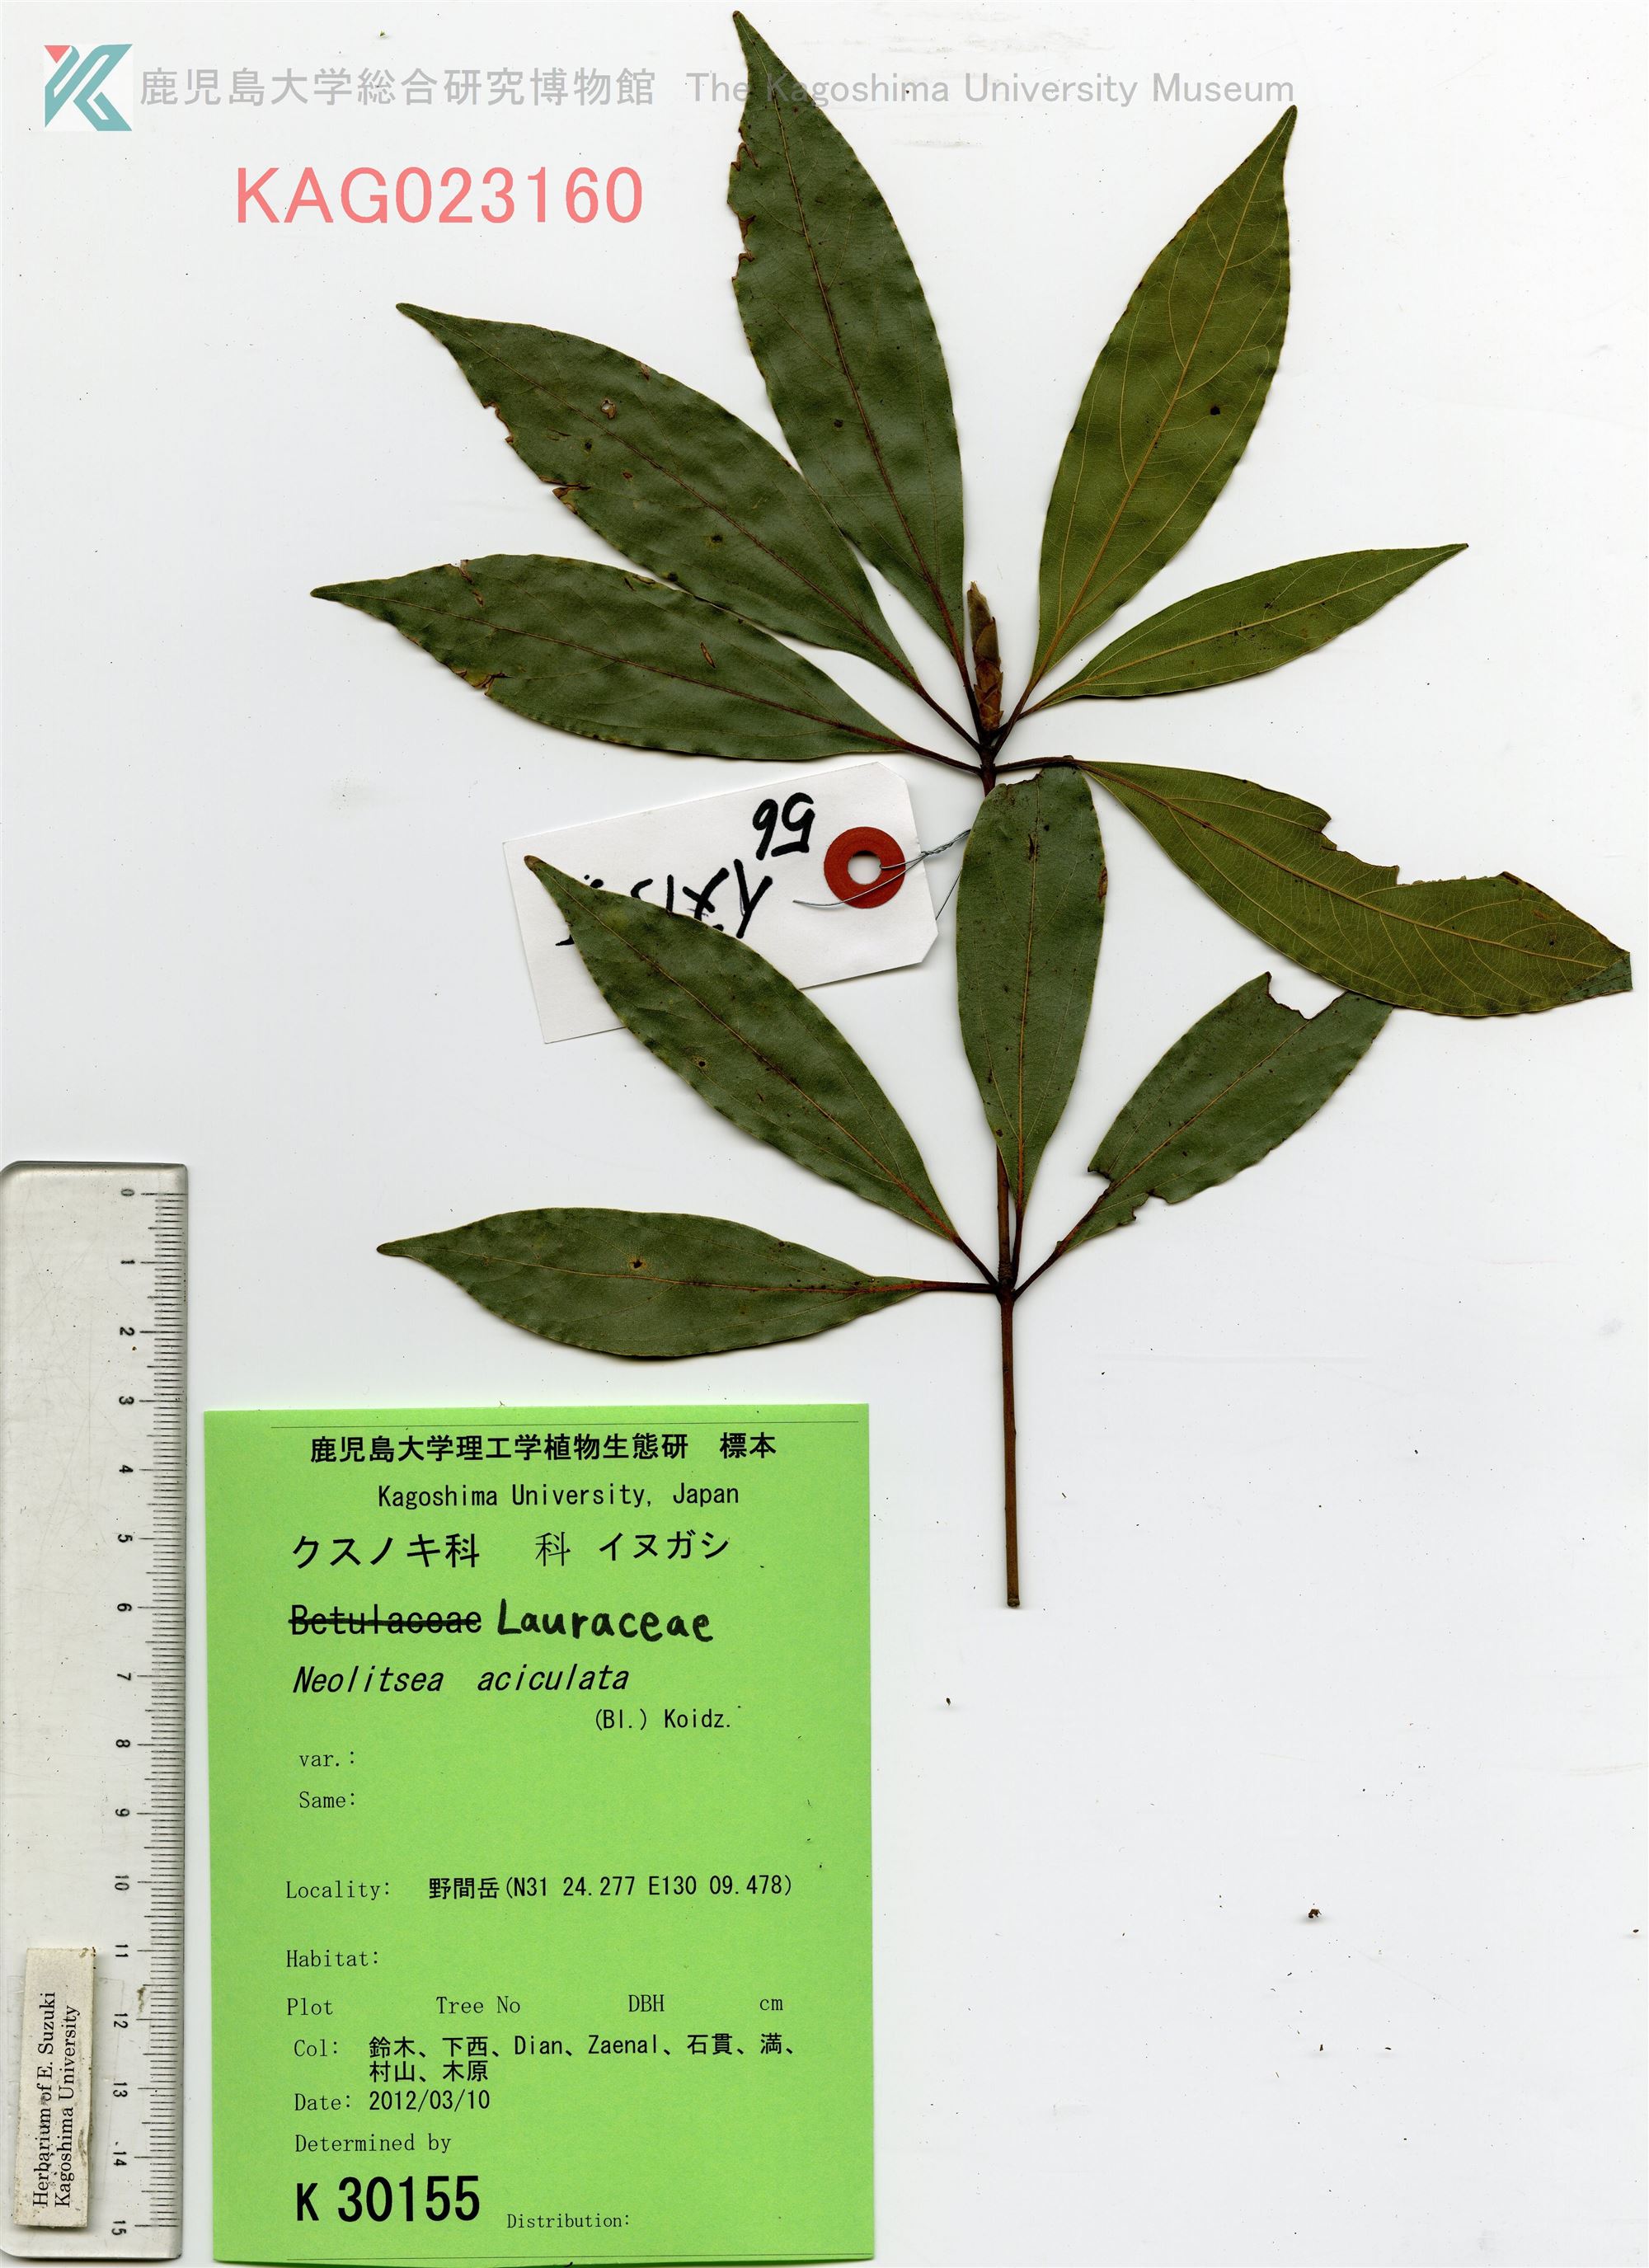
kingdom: Plantae
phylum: Tracheophyta
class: Magnoliopsida
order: Laurales
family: Lauraceae
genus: Neolitsea
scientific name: Neolitsea aciculata
